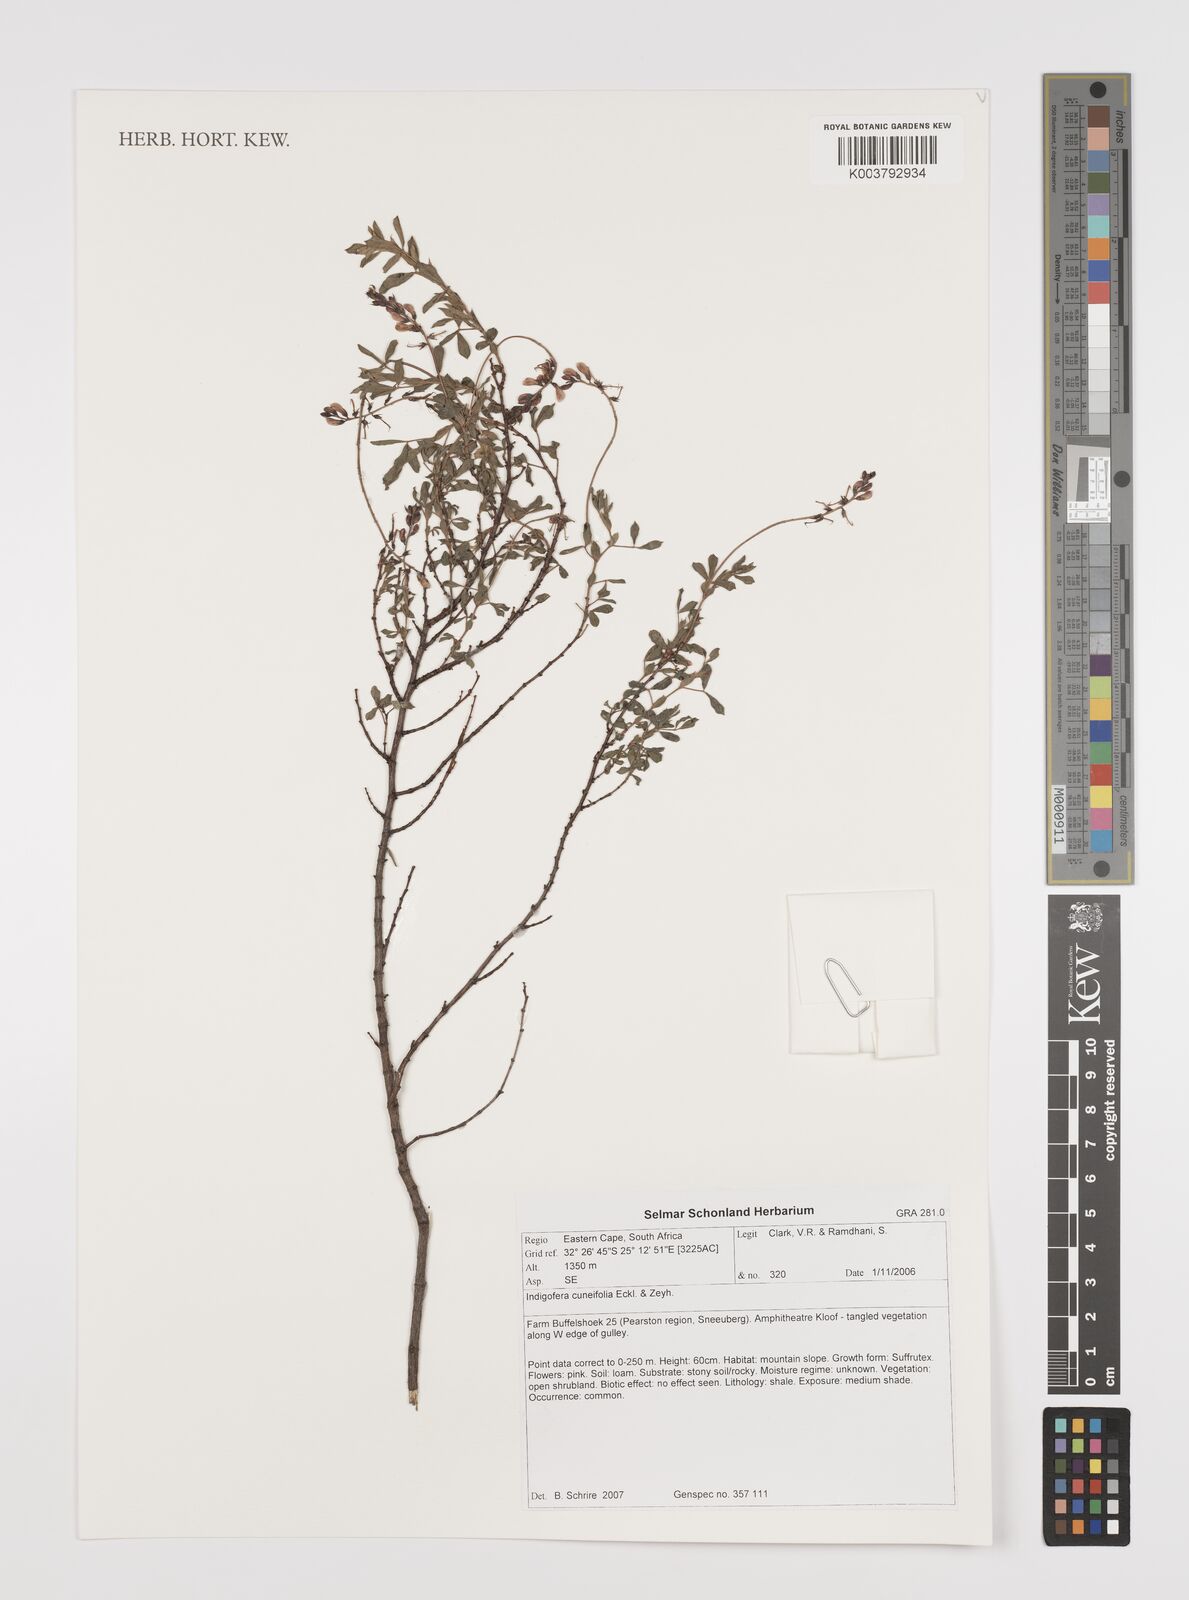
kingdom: Plantae
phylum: Tracheophyta
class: Magnoliopsida
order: Fabales
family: Fabaceae
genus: Indigofera
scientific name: Indigofera cuneifolia
